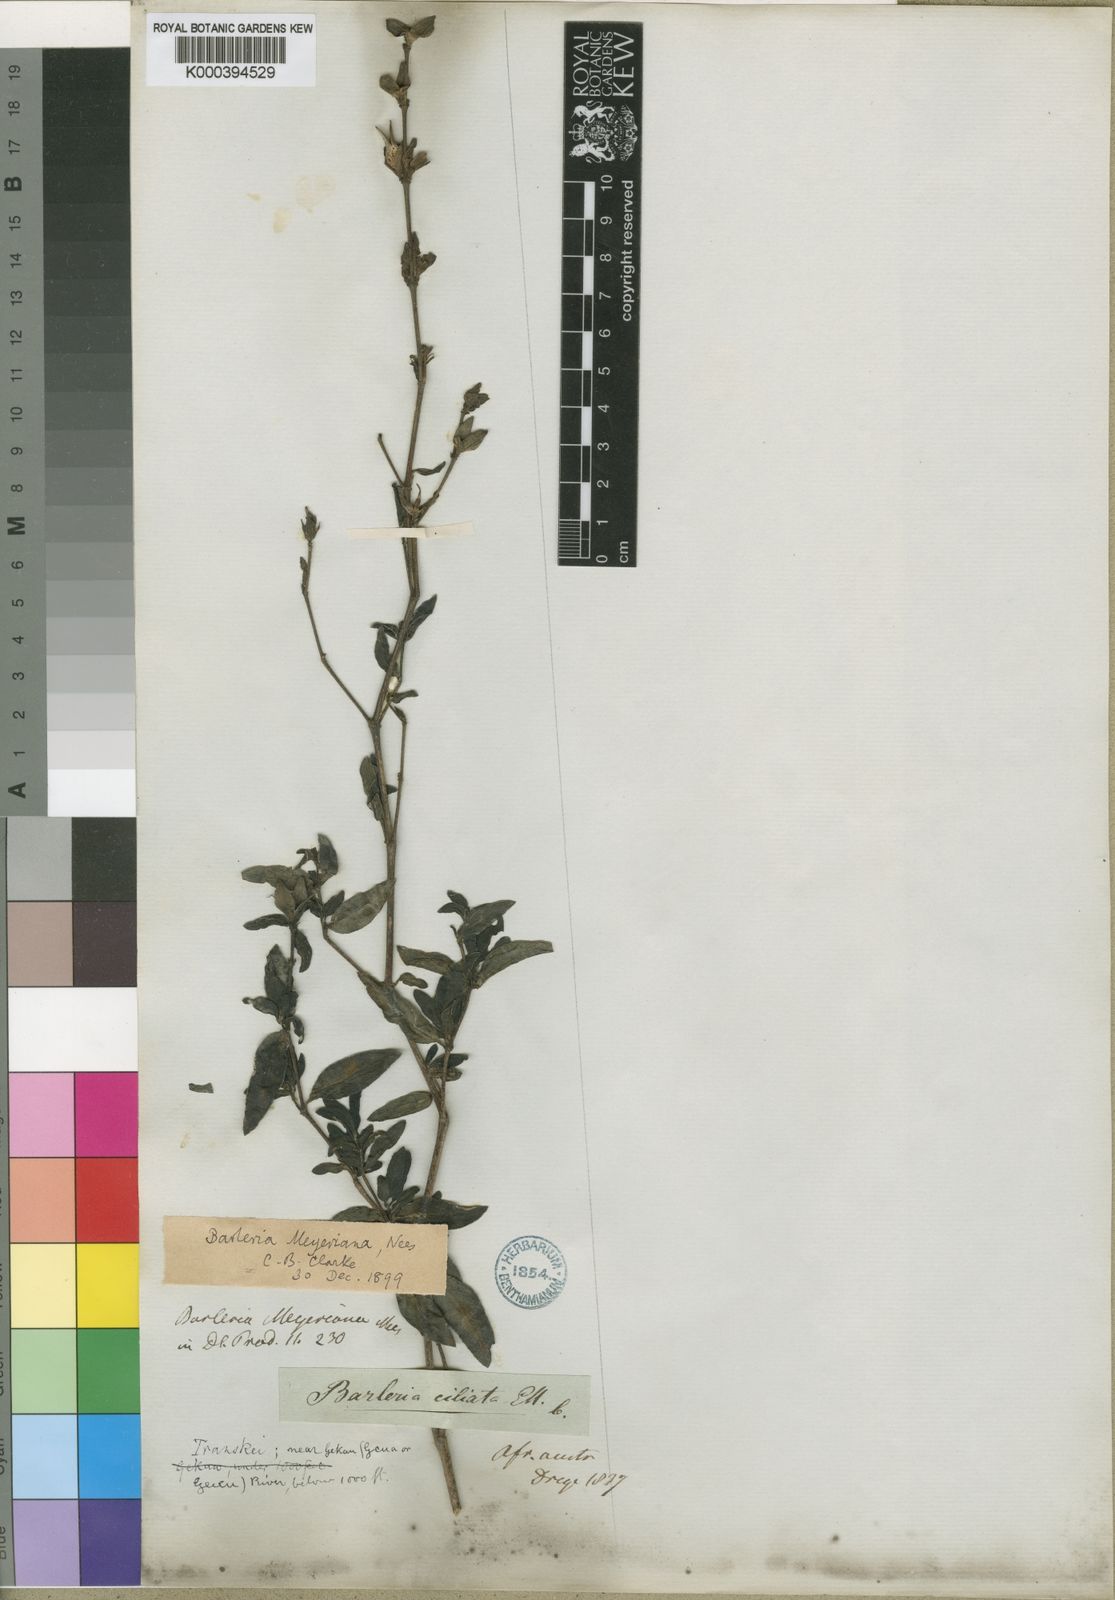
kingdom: Plantae
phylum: Tracheophyta
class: Magnoliopsida
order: Lamiales
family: Acanthaceae
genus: Barleria
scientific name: Barleria meyeriana
